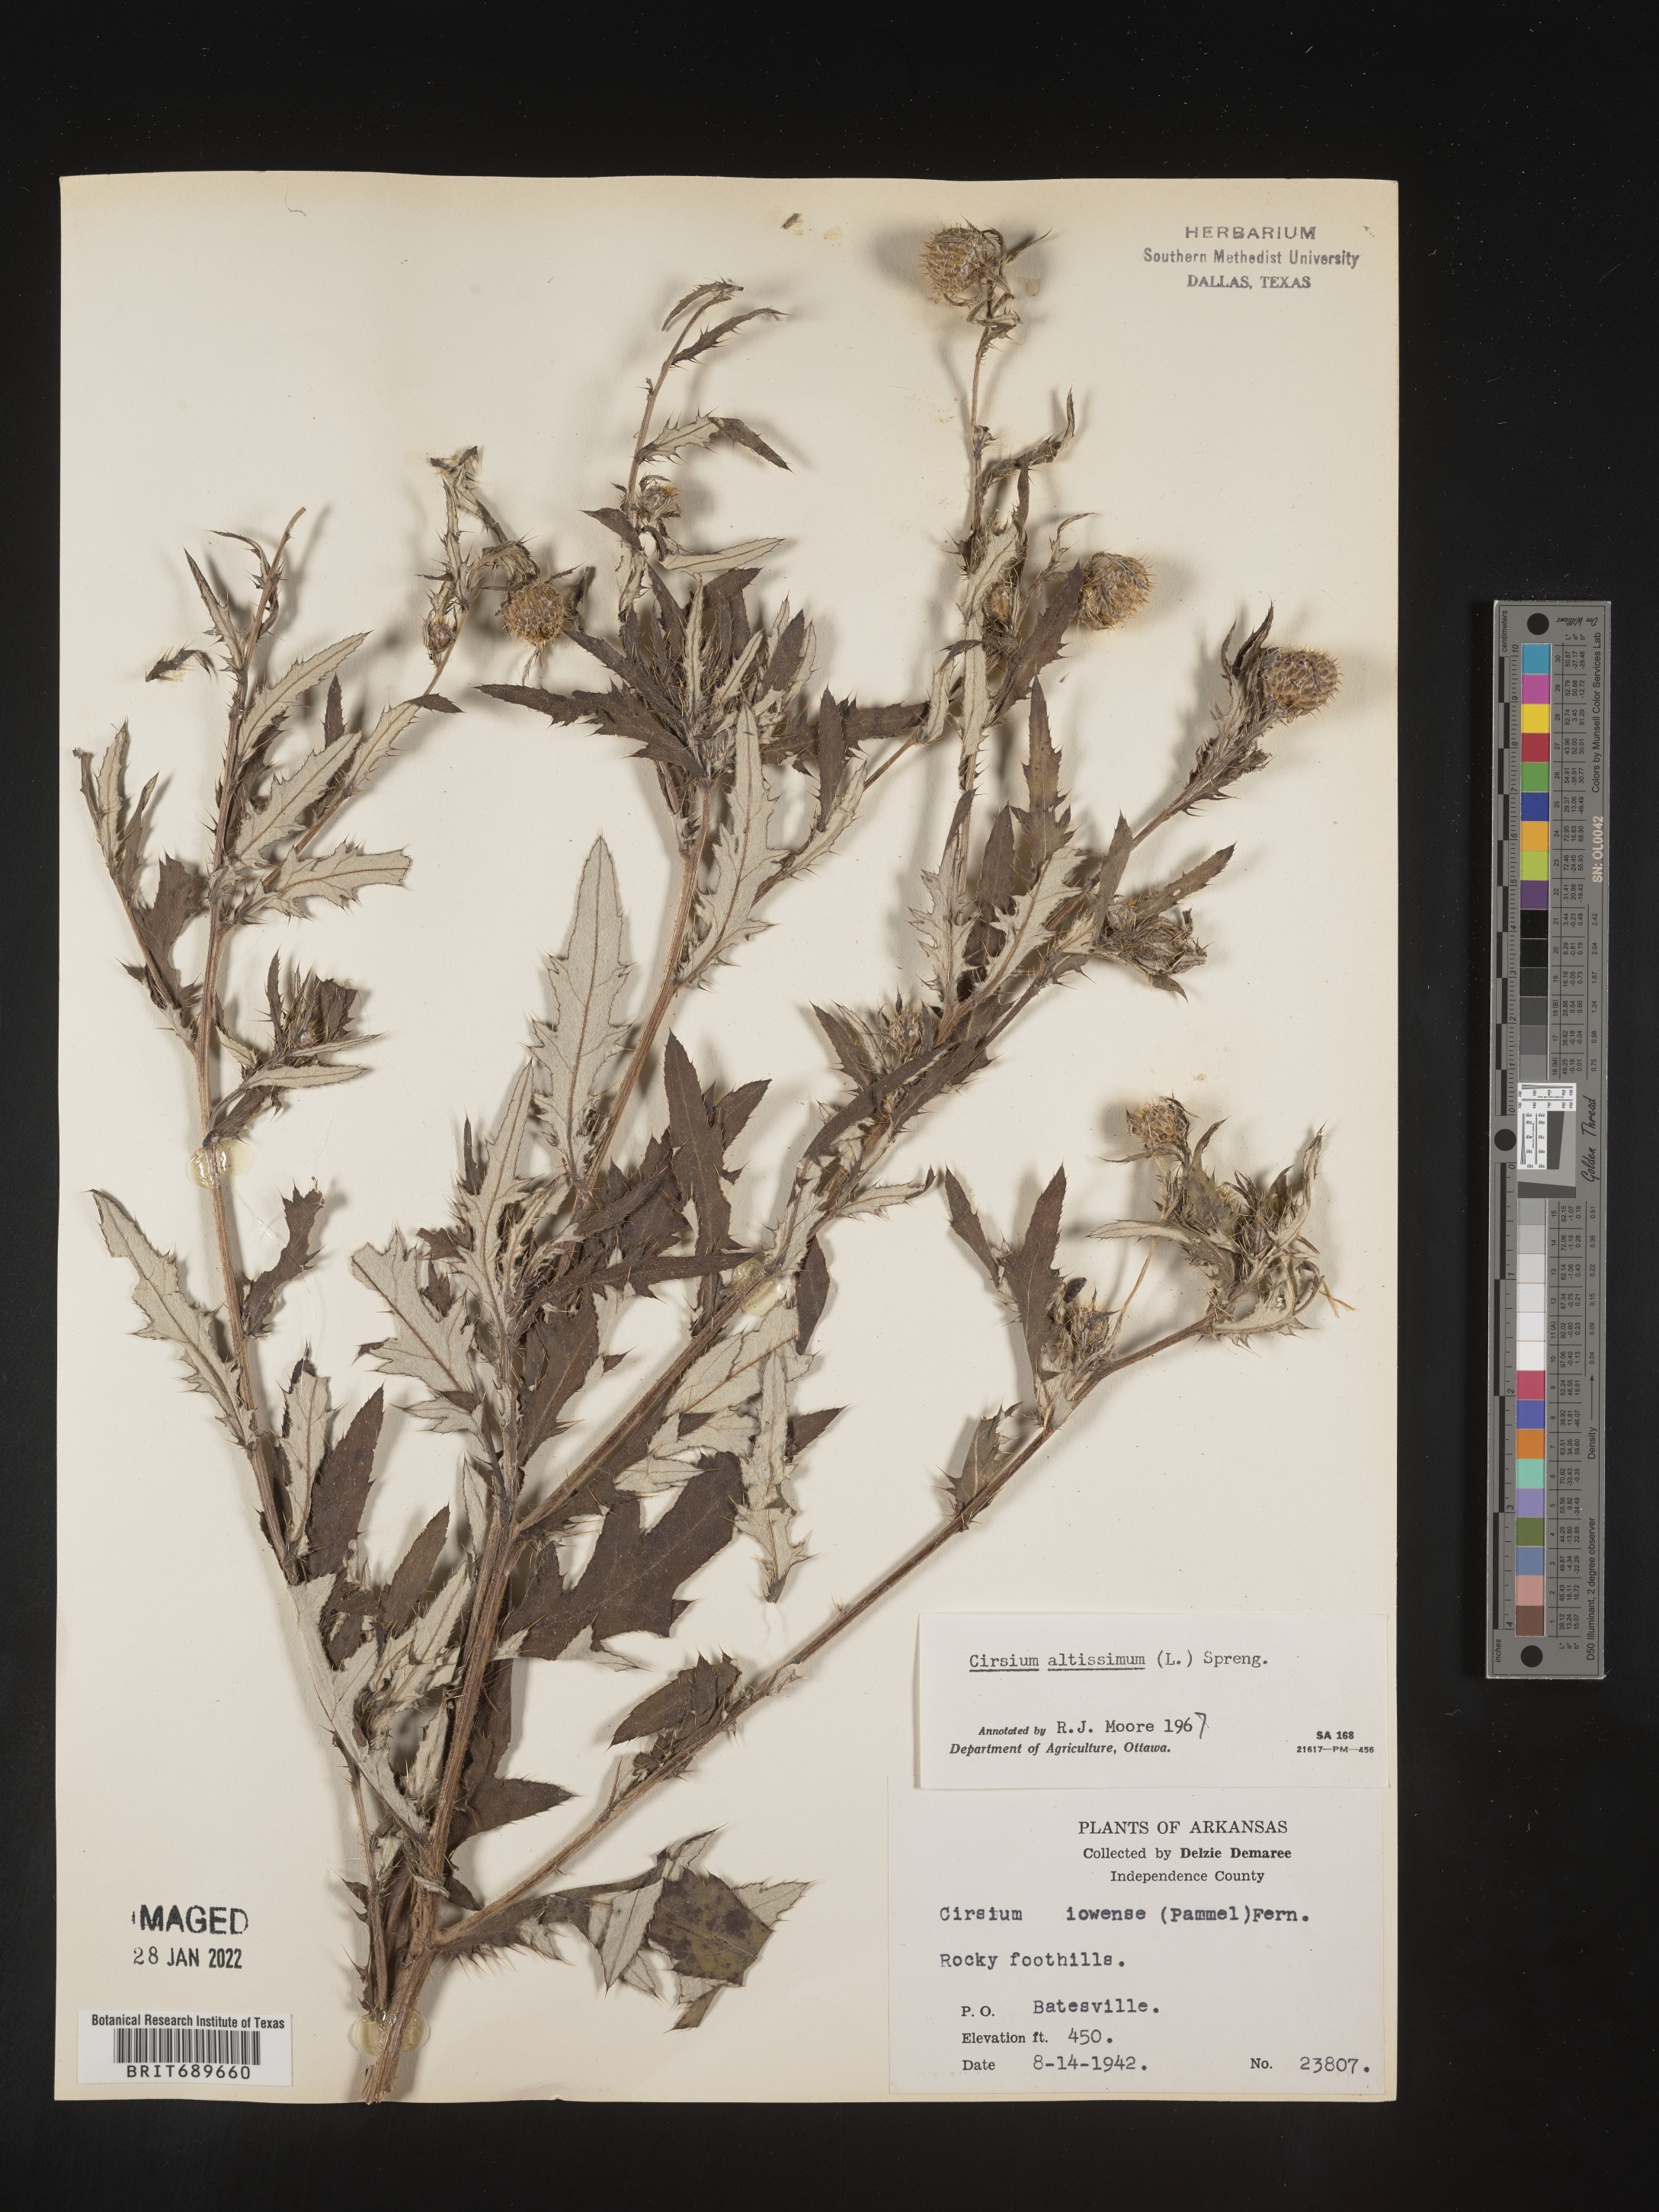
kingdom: Plantae
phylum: Tracheophyta
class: Magnoliopsida
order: Asterales
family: Asteraceae
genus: Cirsium
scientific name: Cirsium altissimum
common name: Roadside thistle
